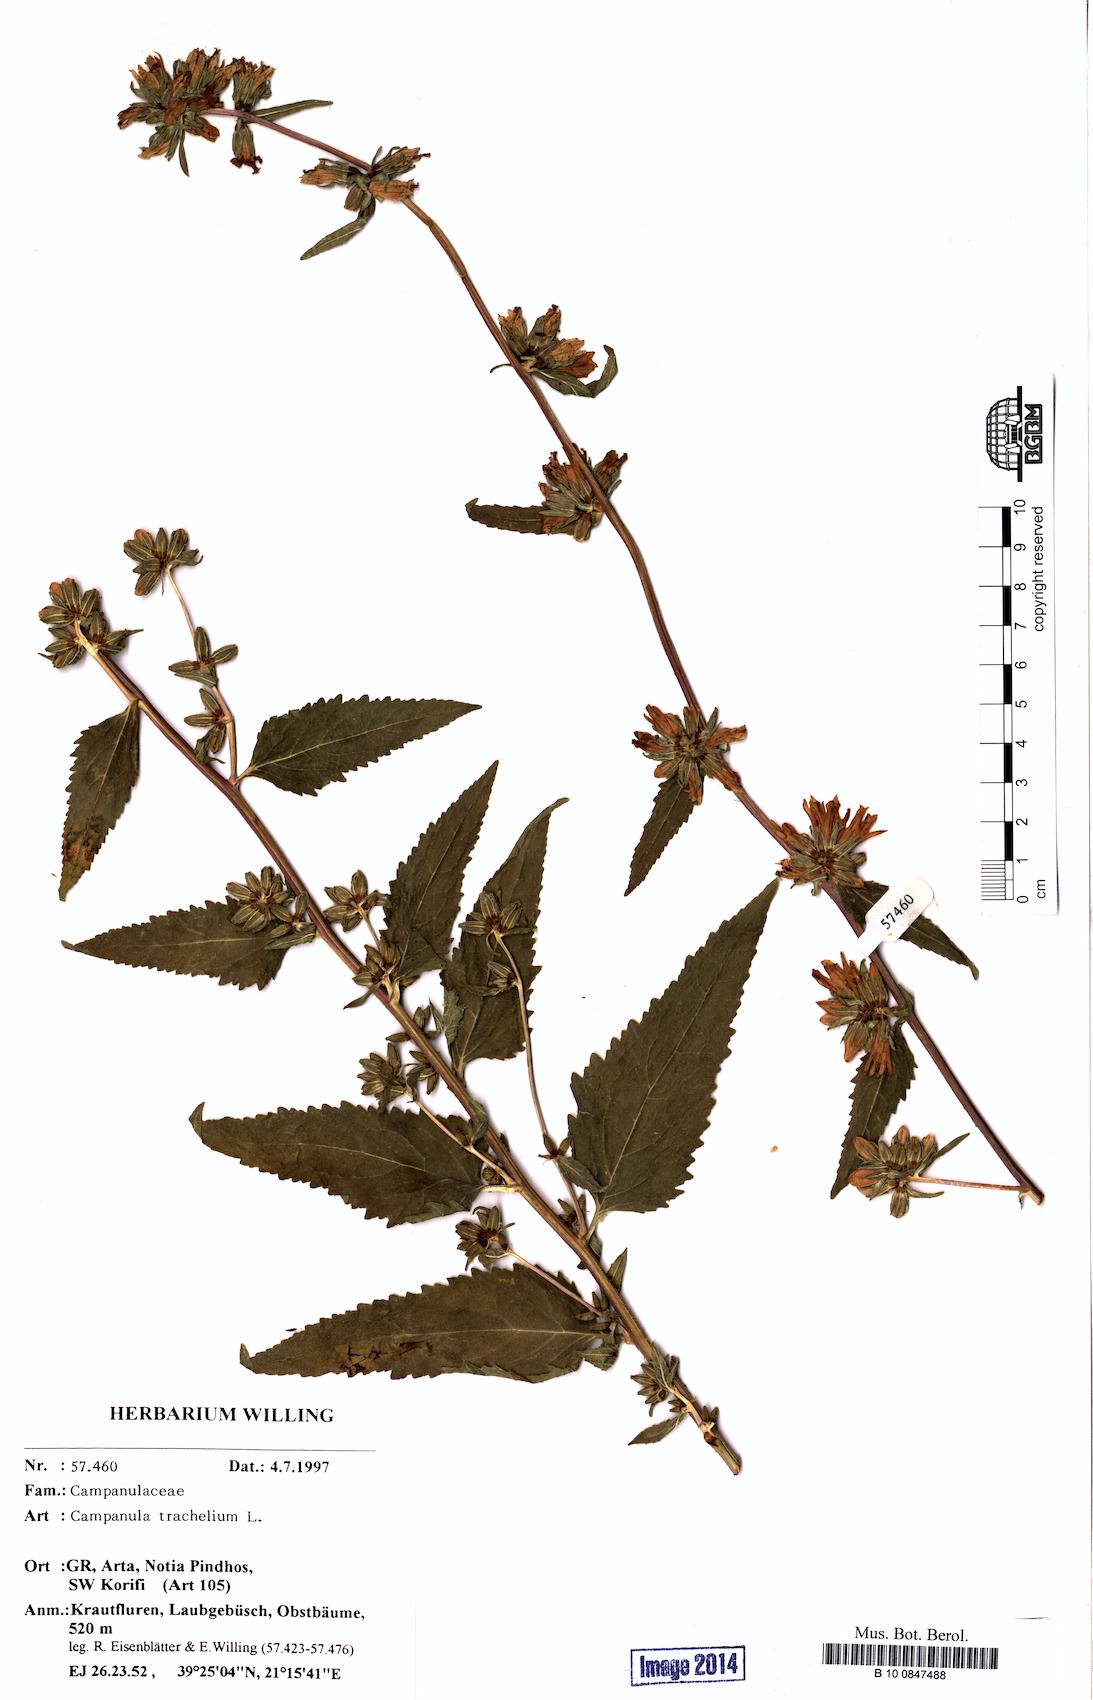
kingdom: Plantae
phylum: Tracheophyta
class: Magnoliopsida
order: Asterales
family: Campanulaceae
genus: Campanula
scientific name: Campanula trachelium
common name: Nettle-leaved bellflower
